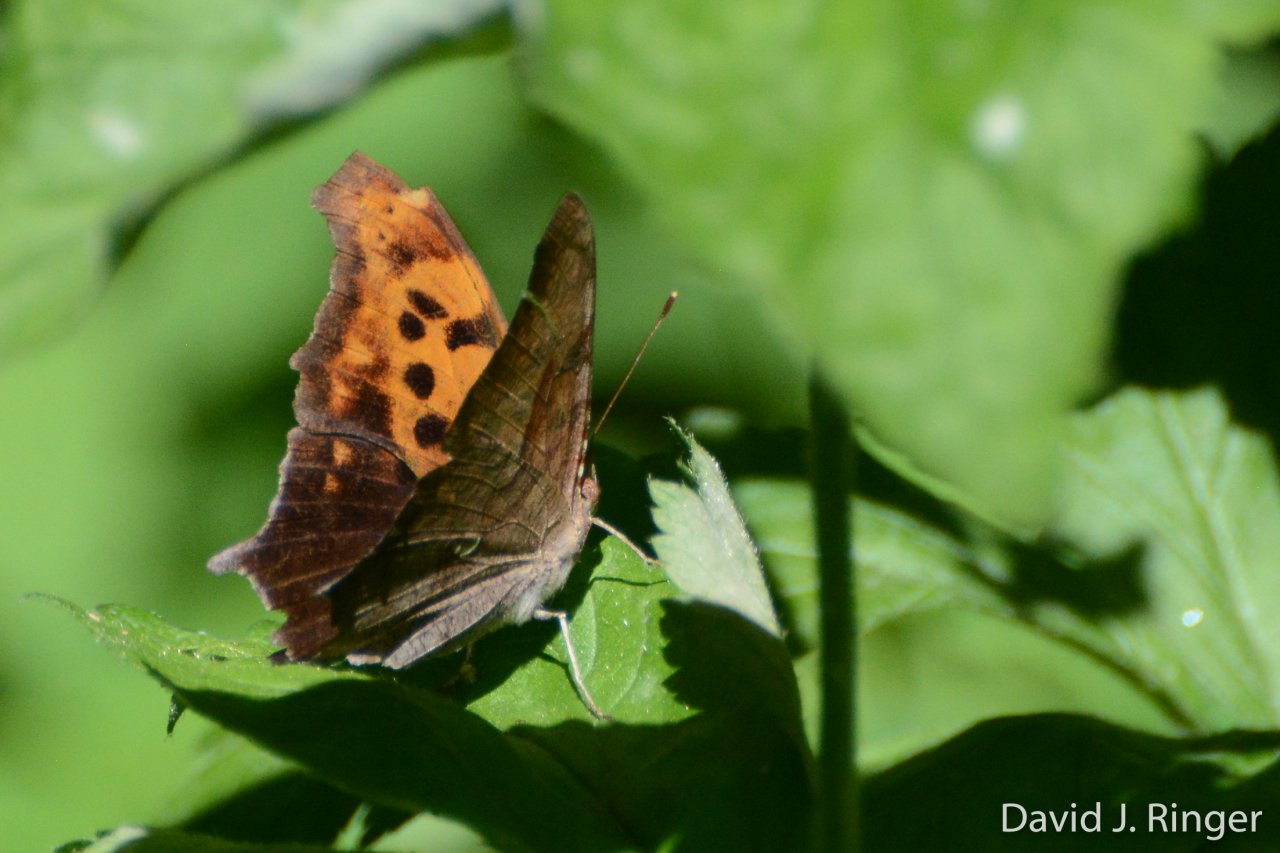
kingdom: Animalia
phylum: Arthropoda
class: Insecta
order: Lepidoptera
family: Nymphalidae
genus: Polygonia
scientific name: Polygonia interrogationis
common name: Question Mark
